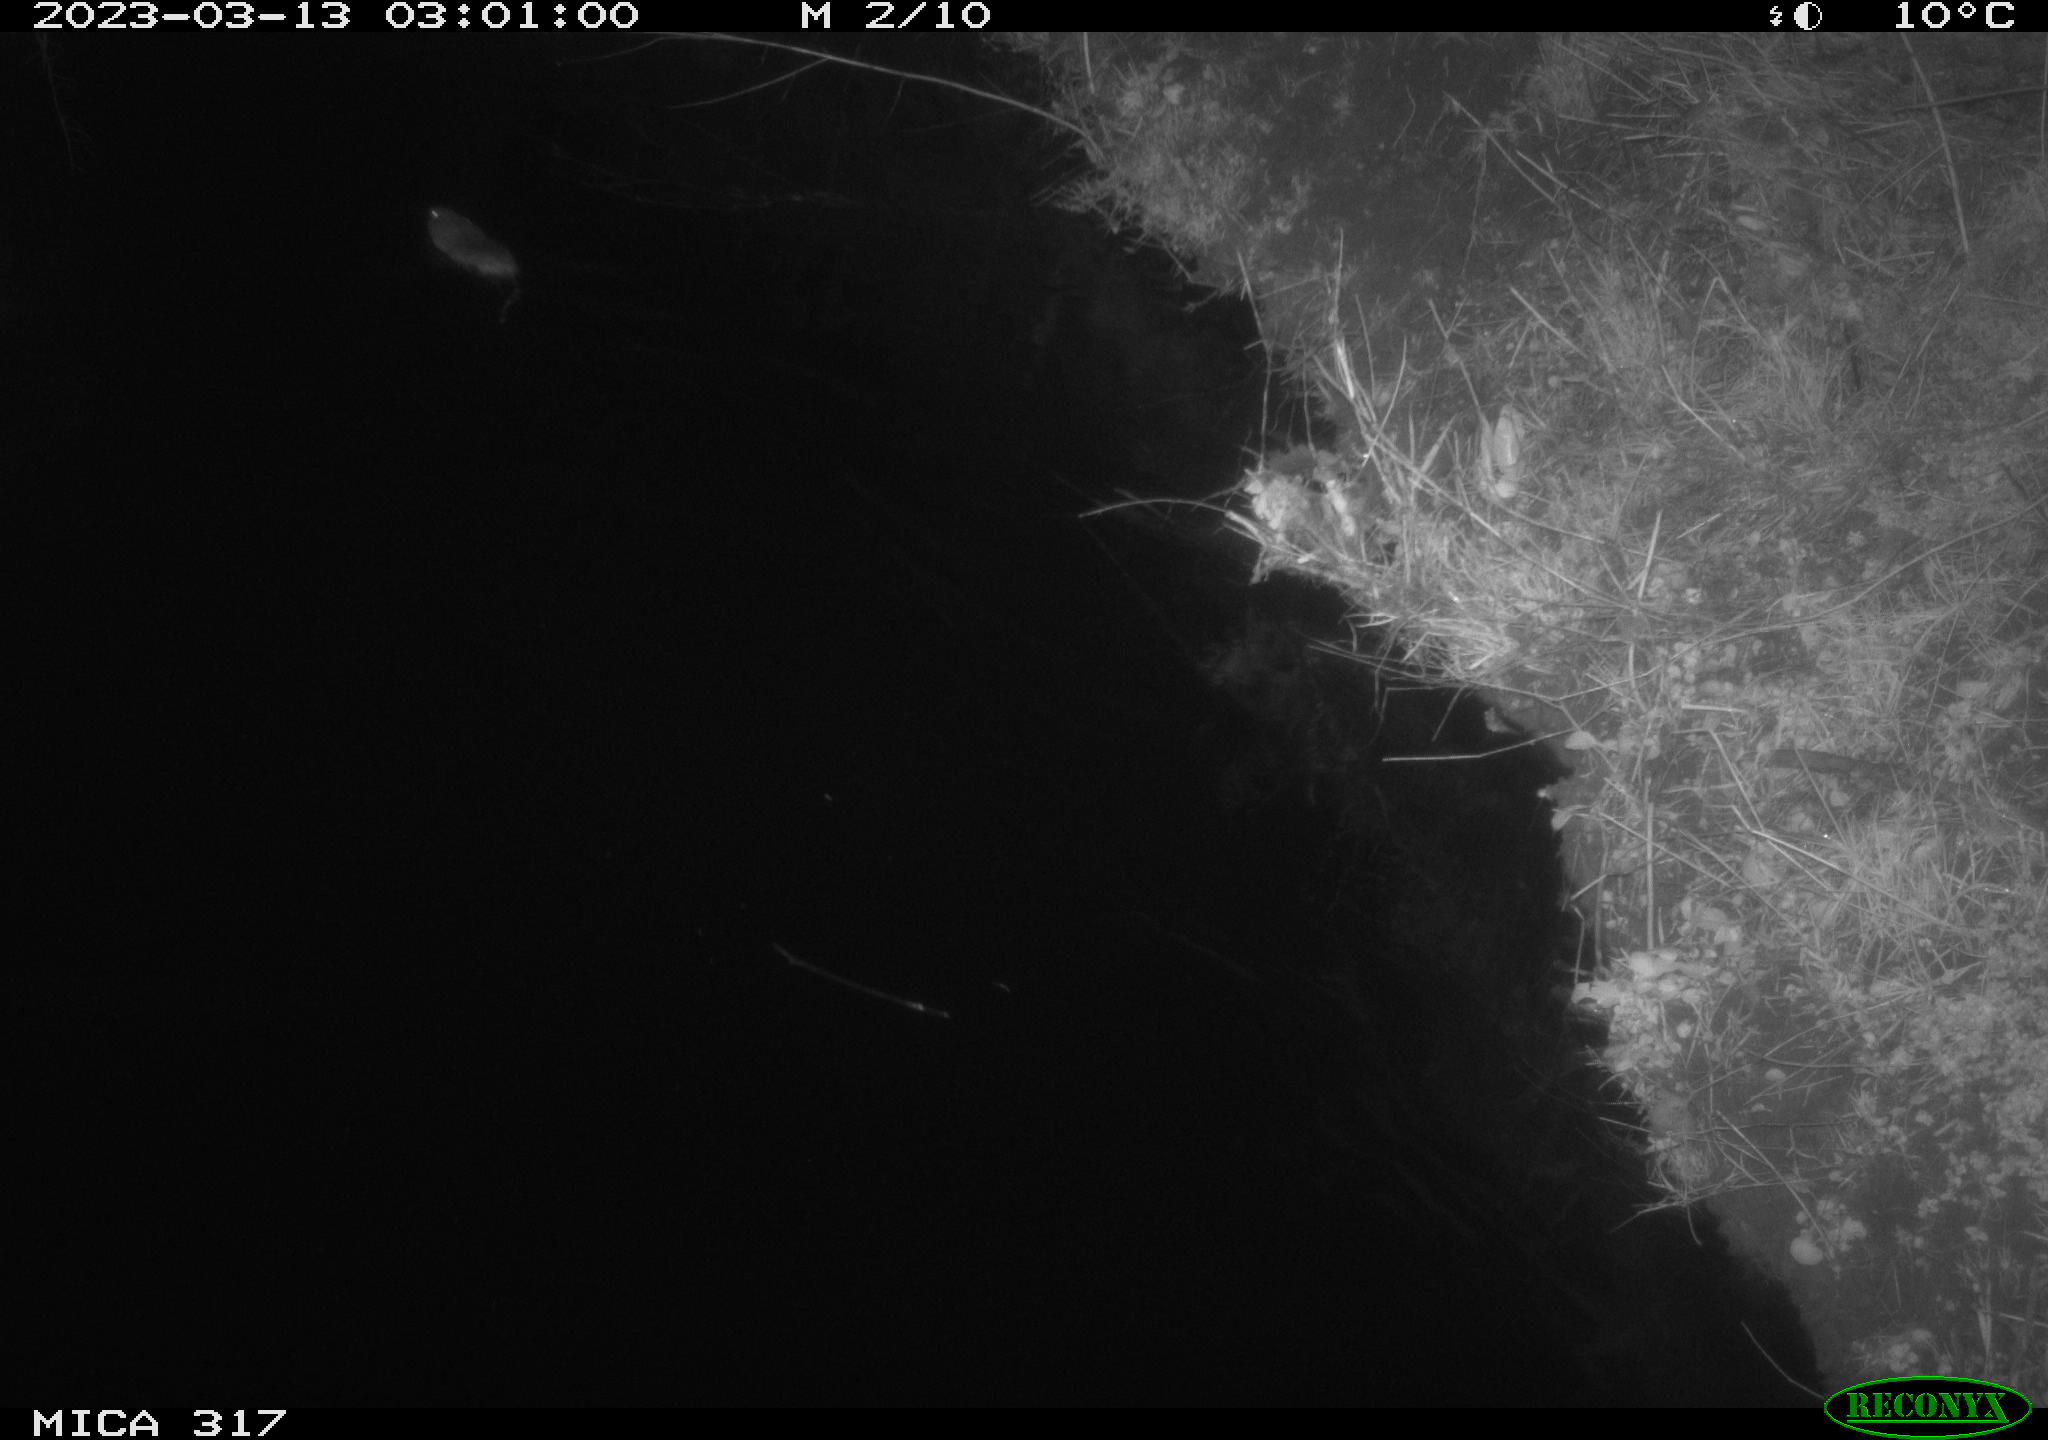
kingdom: Animalia
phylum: Chordata
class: Mammalia
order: Rodentia
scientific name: Rodentia
